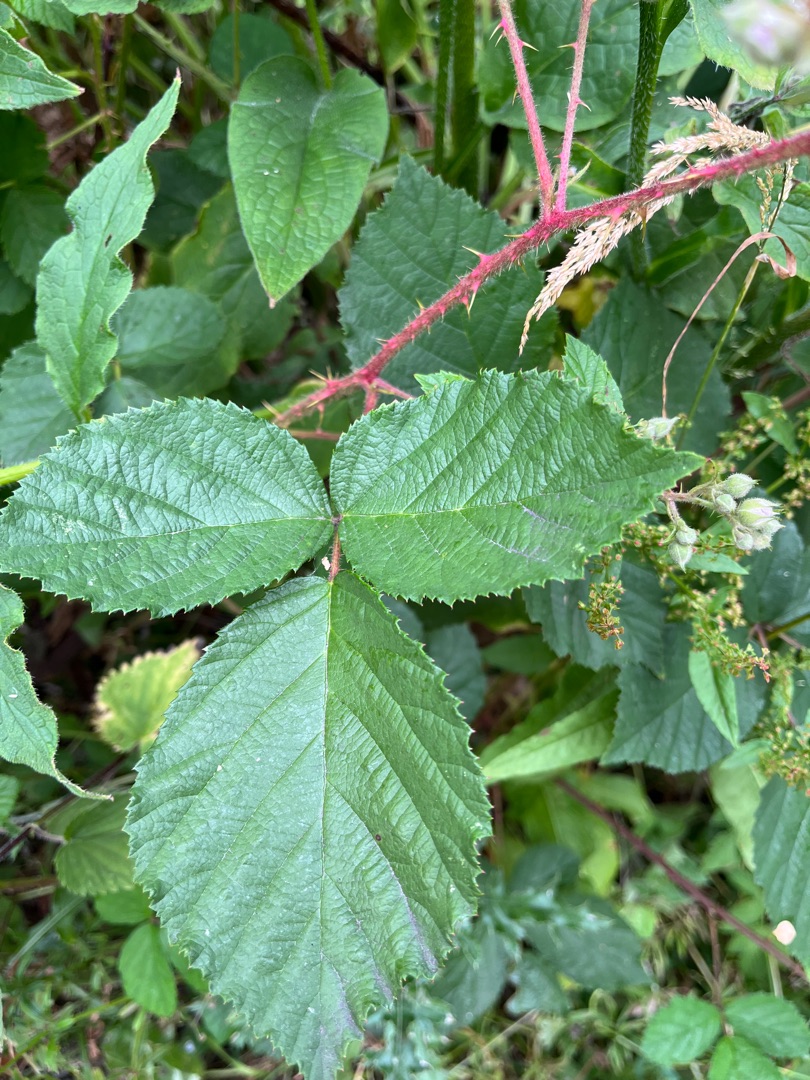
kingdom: Plantae
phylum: Tracheophyta
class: Magnoliopsida
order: Rosales
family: Rosaceae
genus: Rubus
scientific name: Rubus radula
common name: Rasperu brombær
